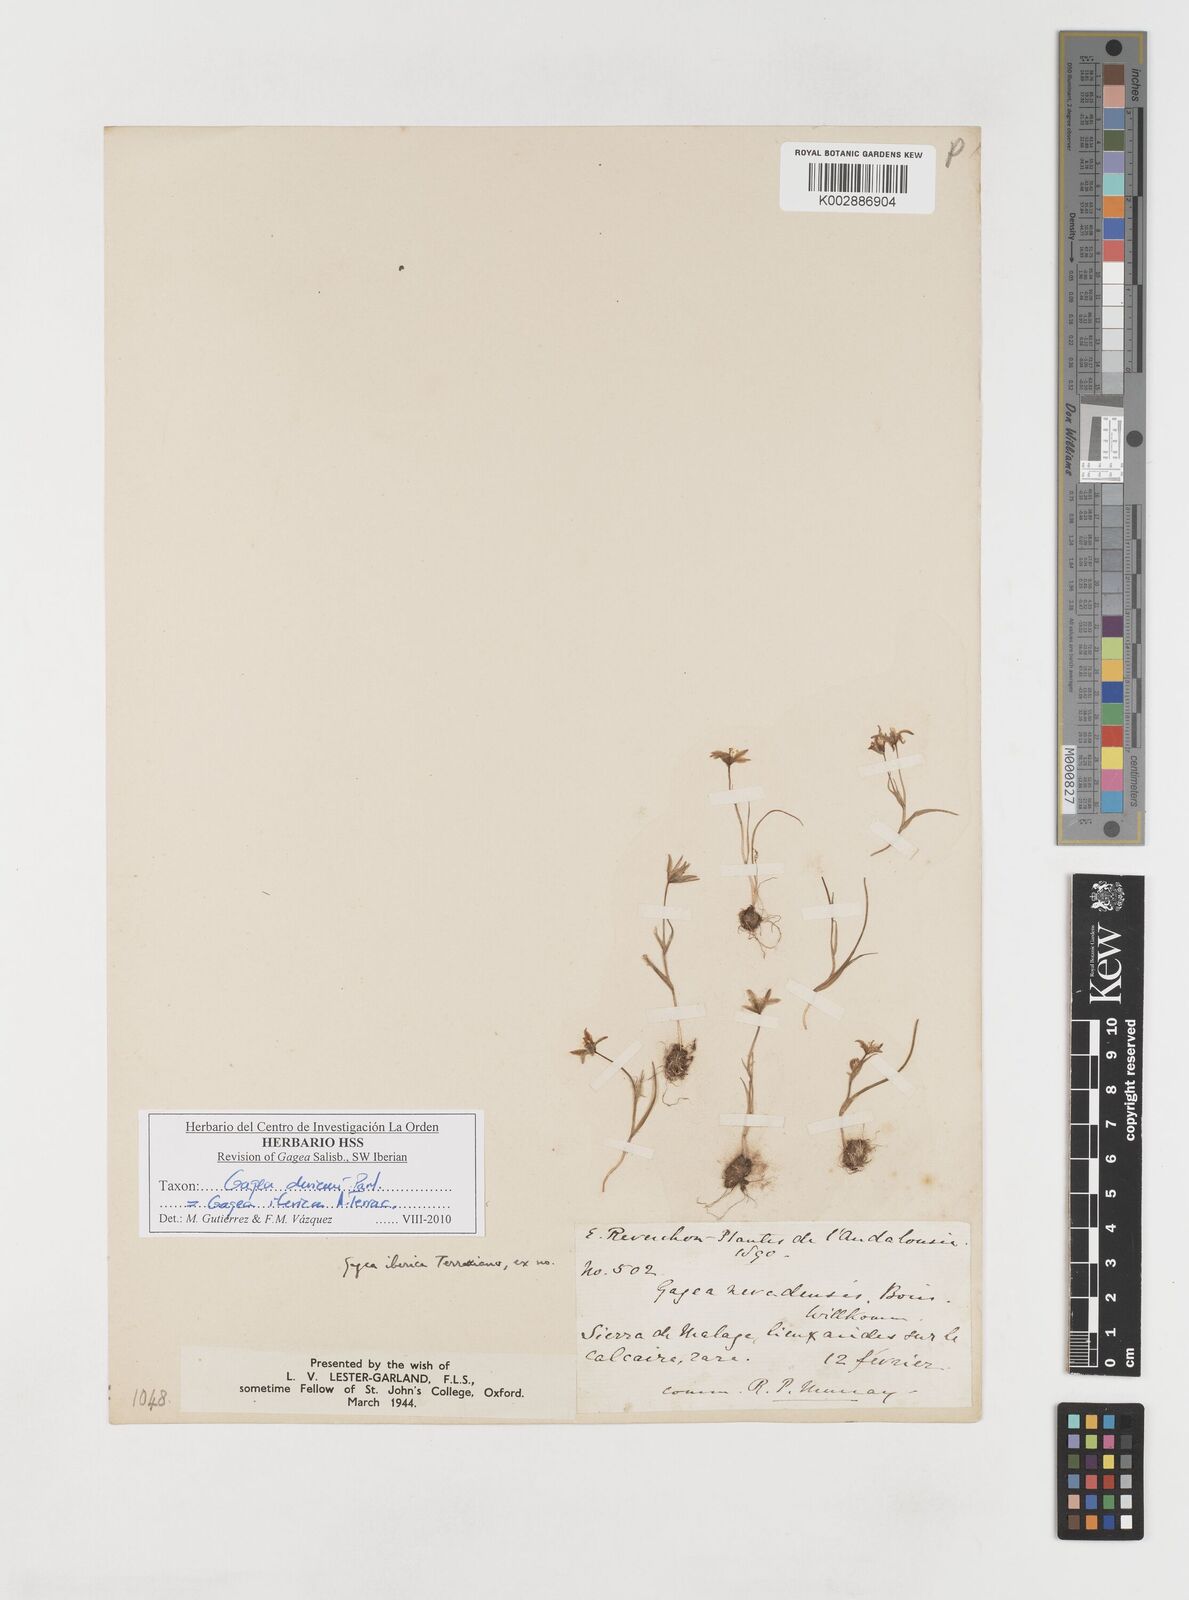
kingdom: Plantae
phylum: Tracheophyta
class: Liliopsida
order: Liliales
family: Liliaceae
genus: Gagea
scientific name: Gagea durieui
